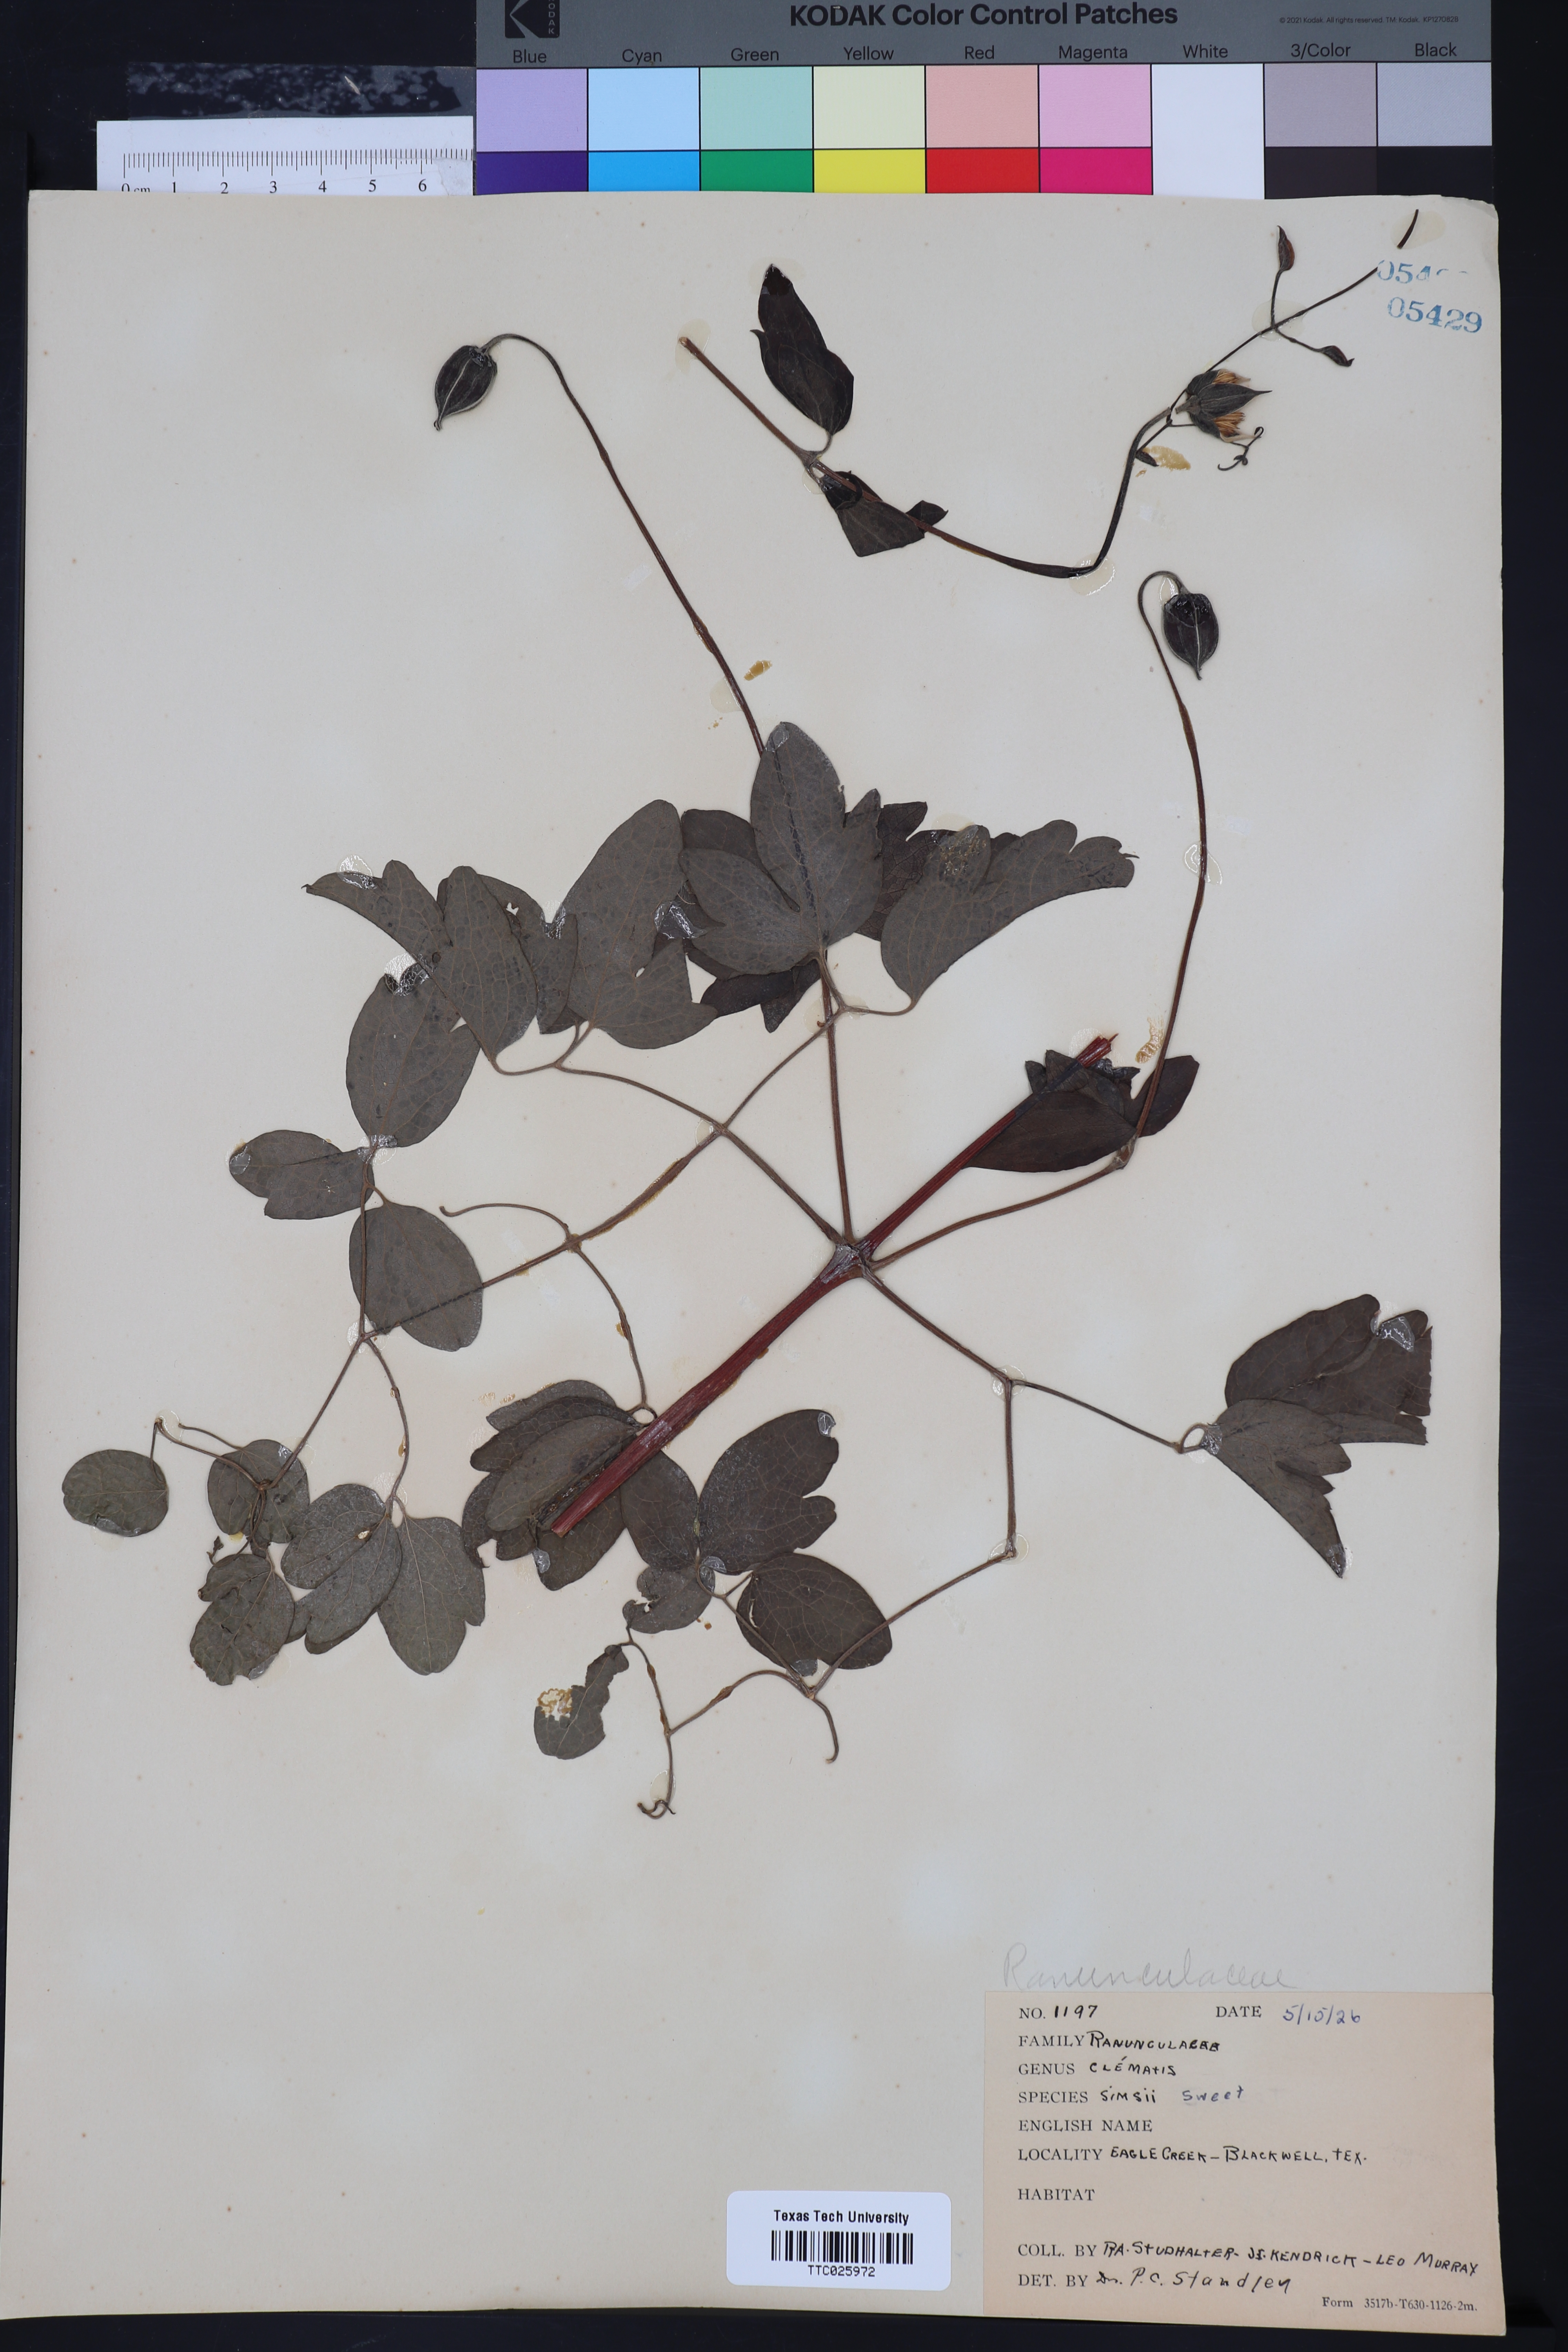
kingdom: Plantae
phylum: Tracheophyta
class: Magnoliopsida
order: Ranunculales
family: Ranunculaceae
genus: Clematis
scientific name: Clematis crispa
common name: Curly clematis
